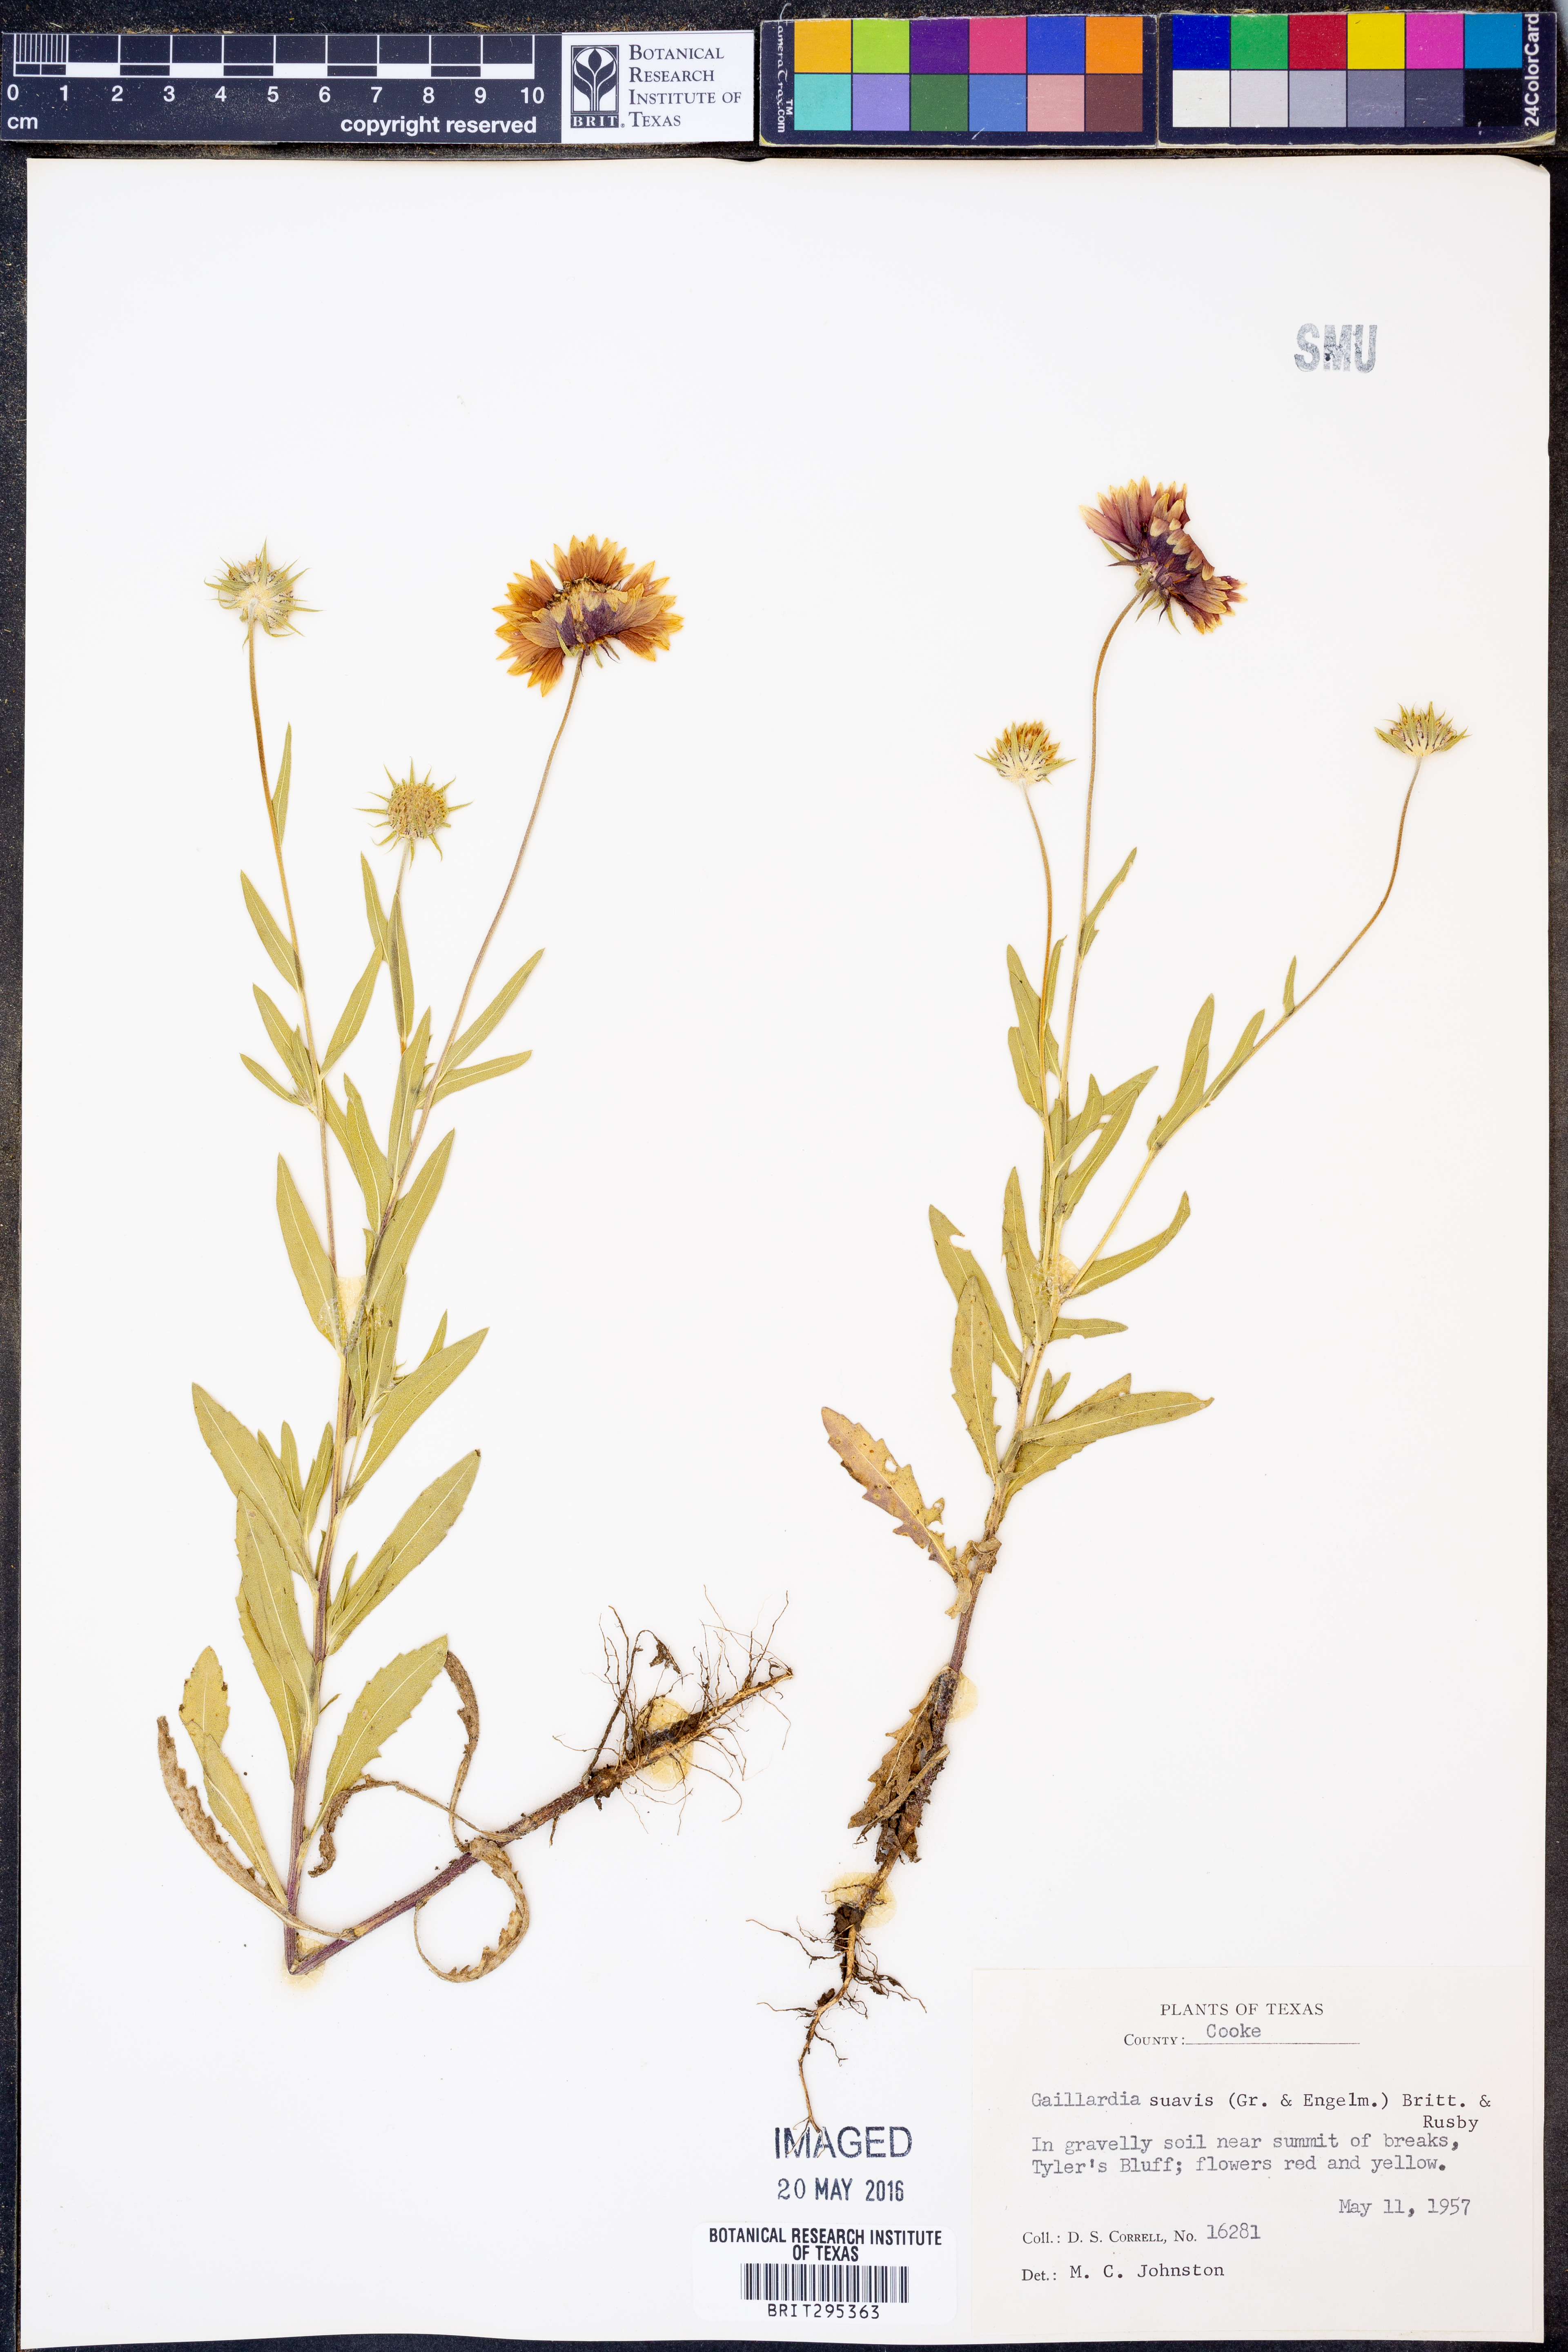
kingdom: Plantae
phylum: Tracheophyta
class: Magnoliopsida
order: Asterales
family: Asteraceae
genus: Gaillardia
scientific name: Gaillardia suavis
